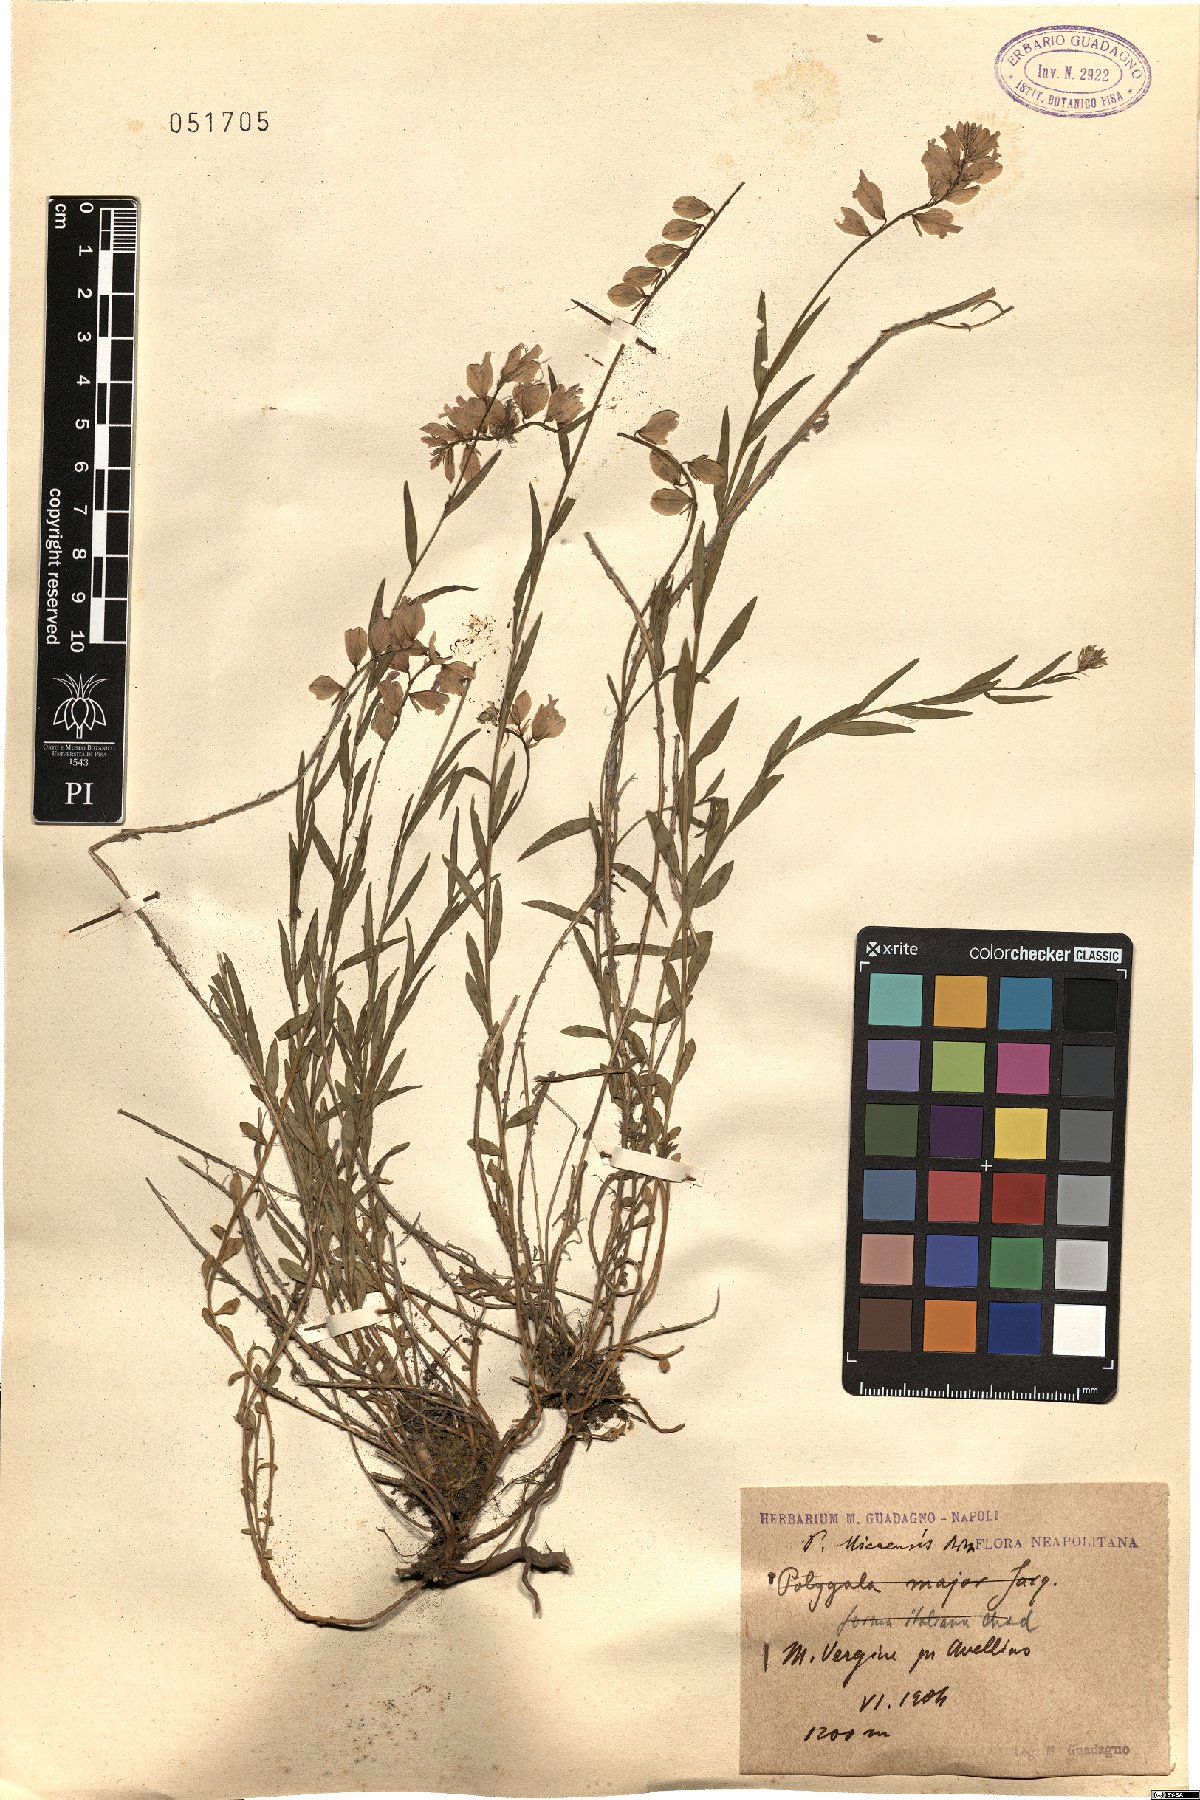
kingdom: Plantae
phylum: Tracheophyta
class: Magnoliopsida
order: Fabales
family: Polygalaceae
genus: Polygala
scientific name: Polygala nicaeensis
